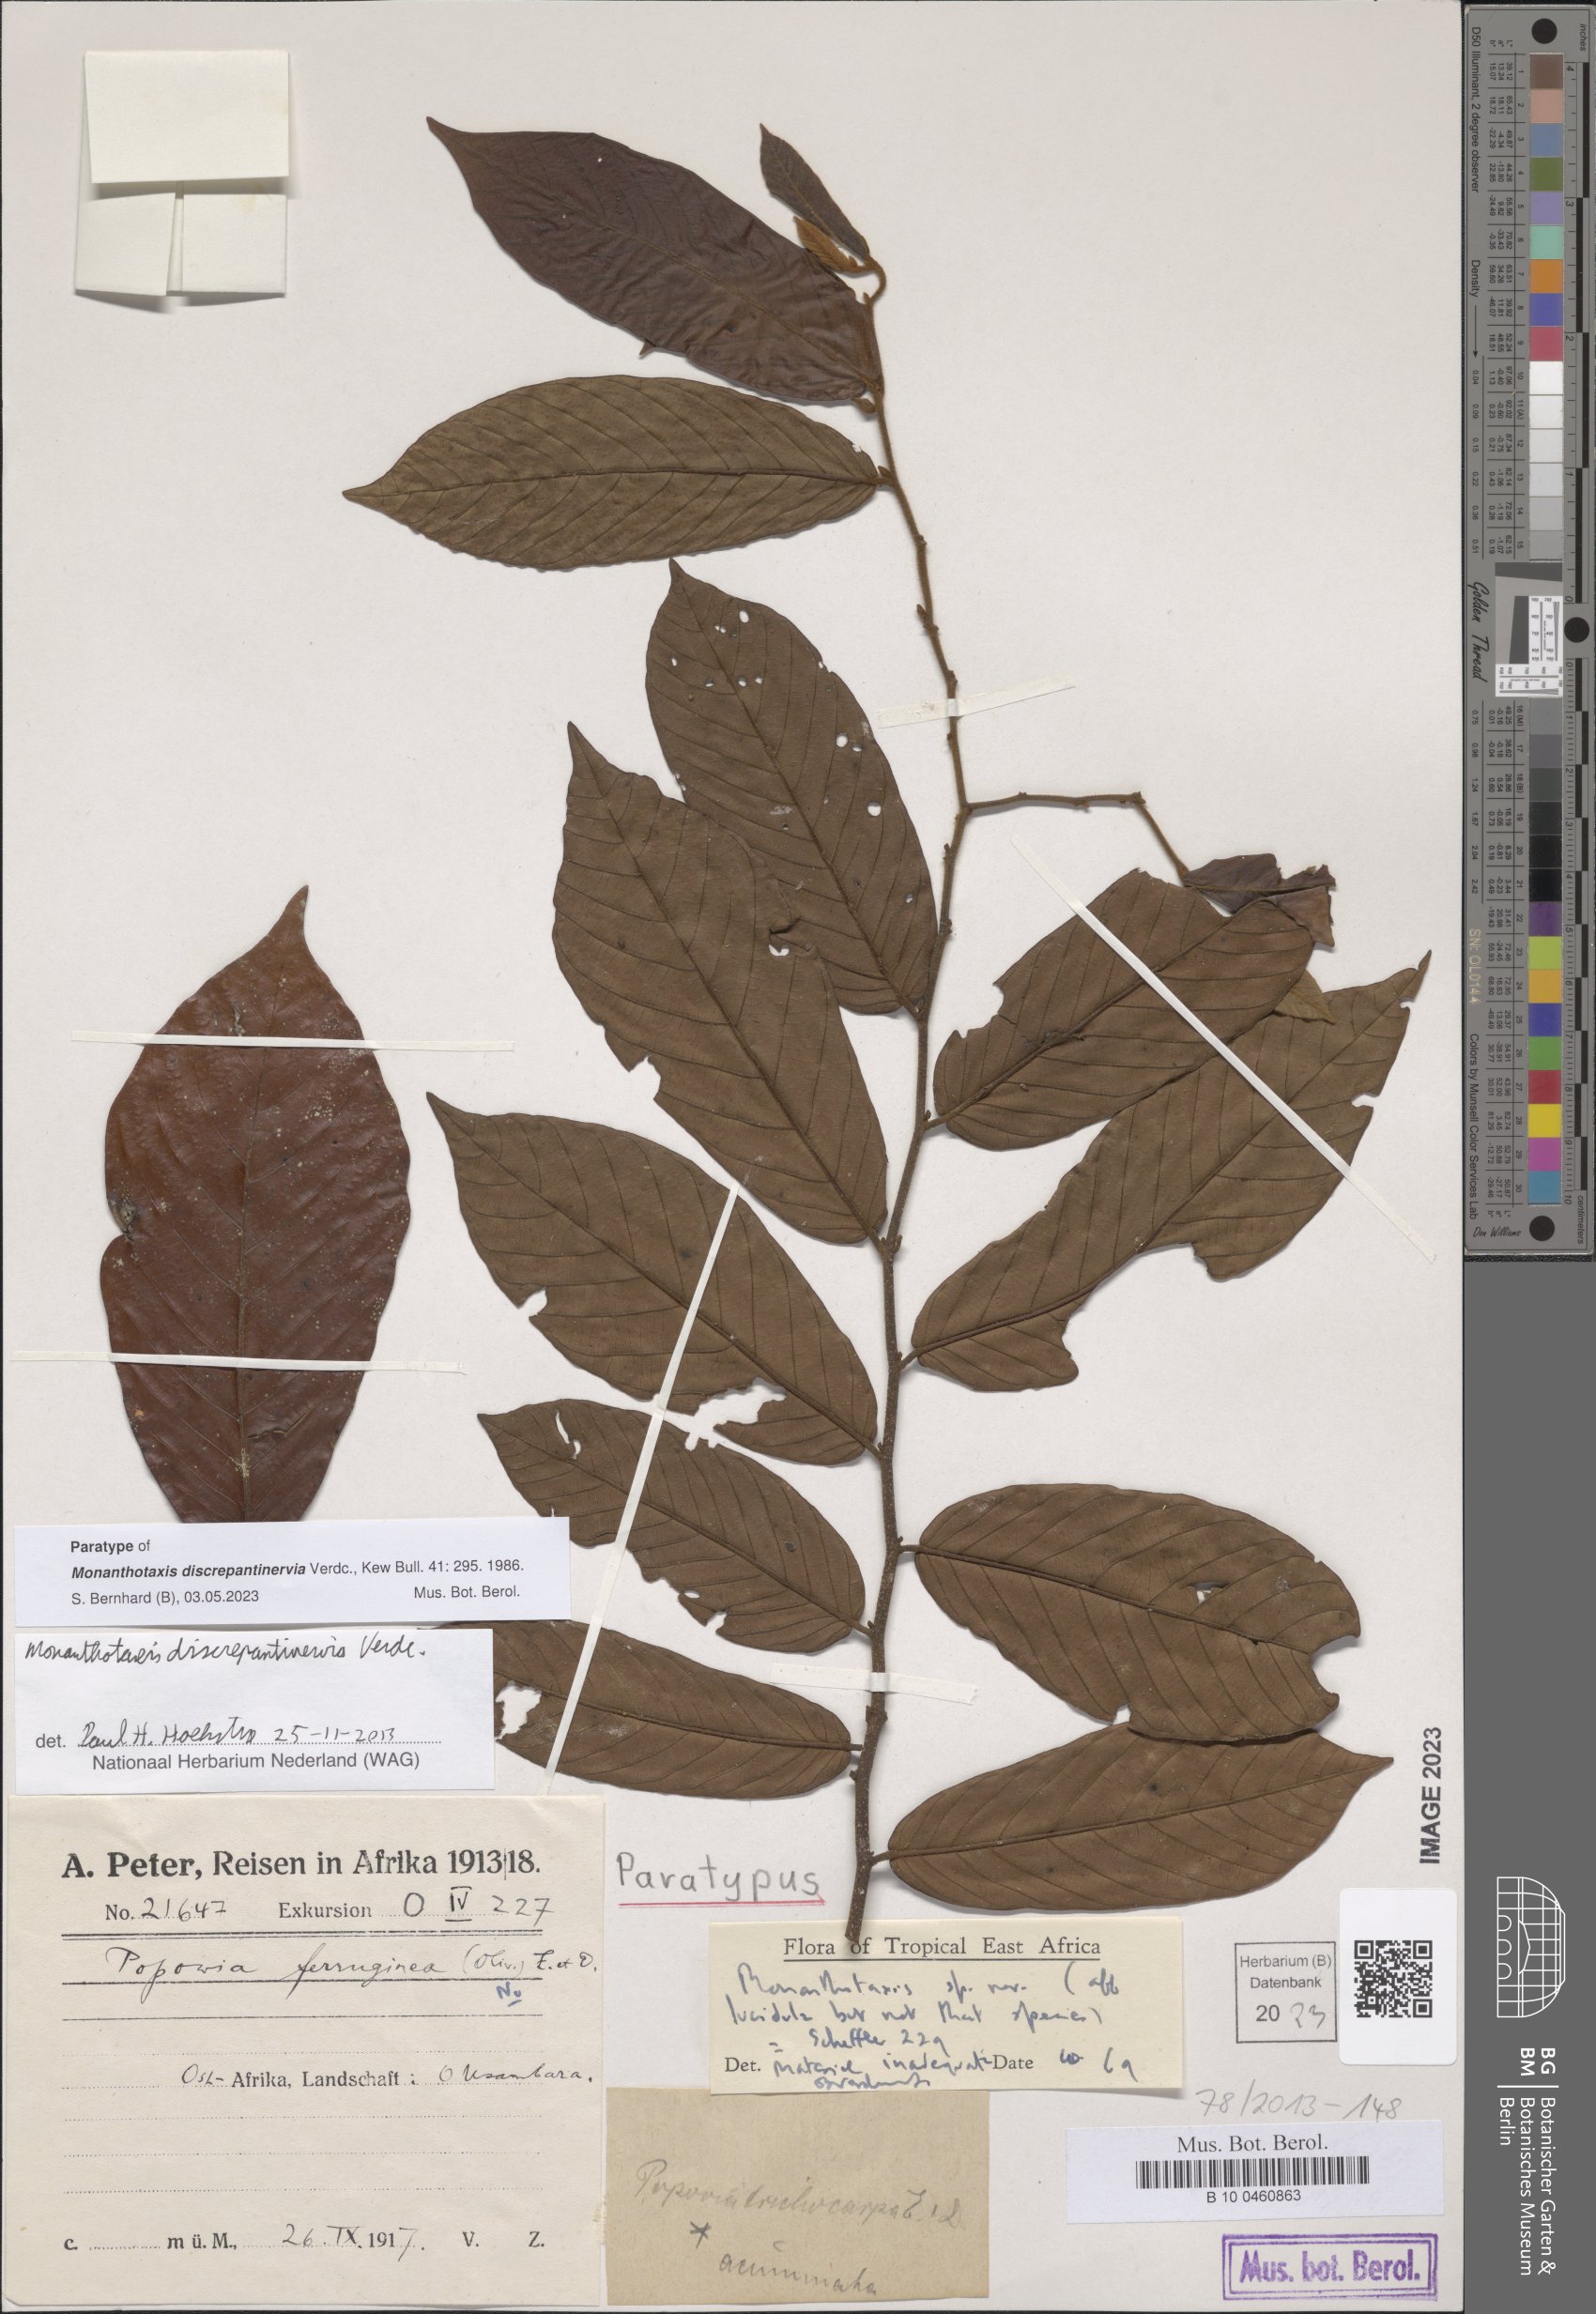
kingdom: Plantae
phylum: Tracheophyta
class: Magnoliopsida
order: Magnoliales
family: Annonaceae
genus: Monanthotaxis
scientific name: Monanthotaxis discrepantinervia
